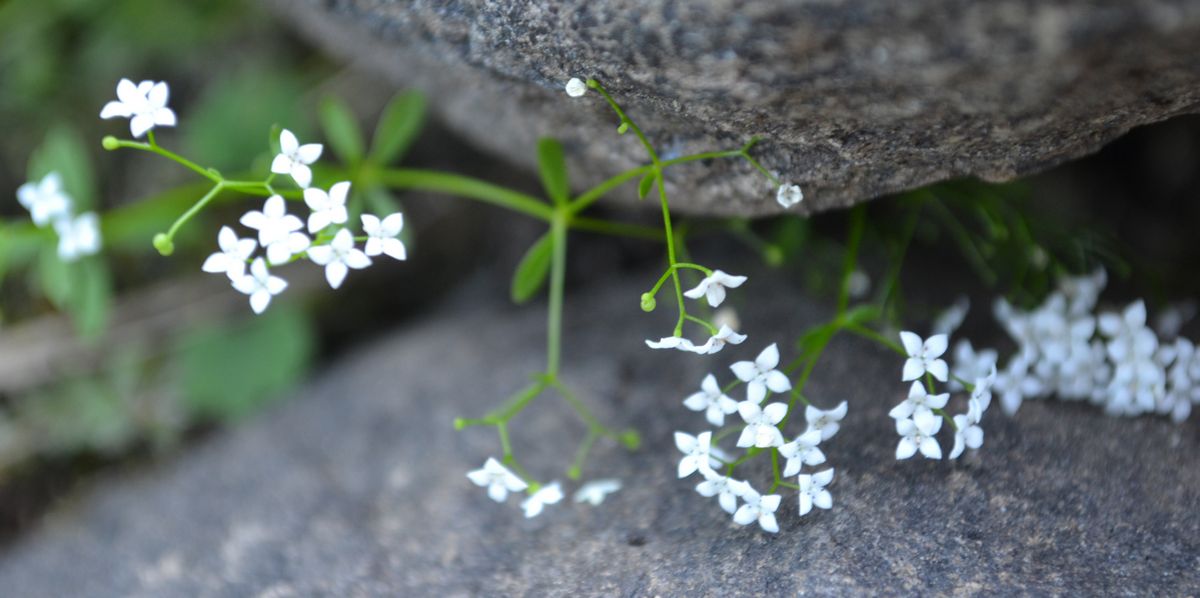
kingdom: Plantae
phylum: Tracheophyta
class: Magnoliopsida
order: Gentianales
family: Rubiaceae
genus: Galium
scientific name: Galium palustre
